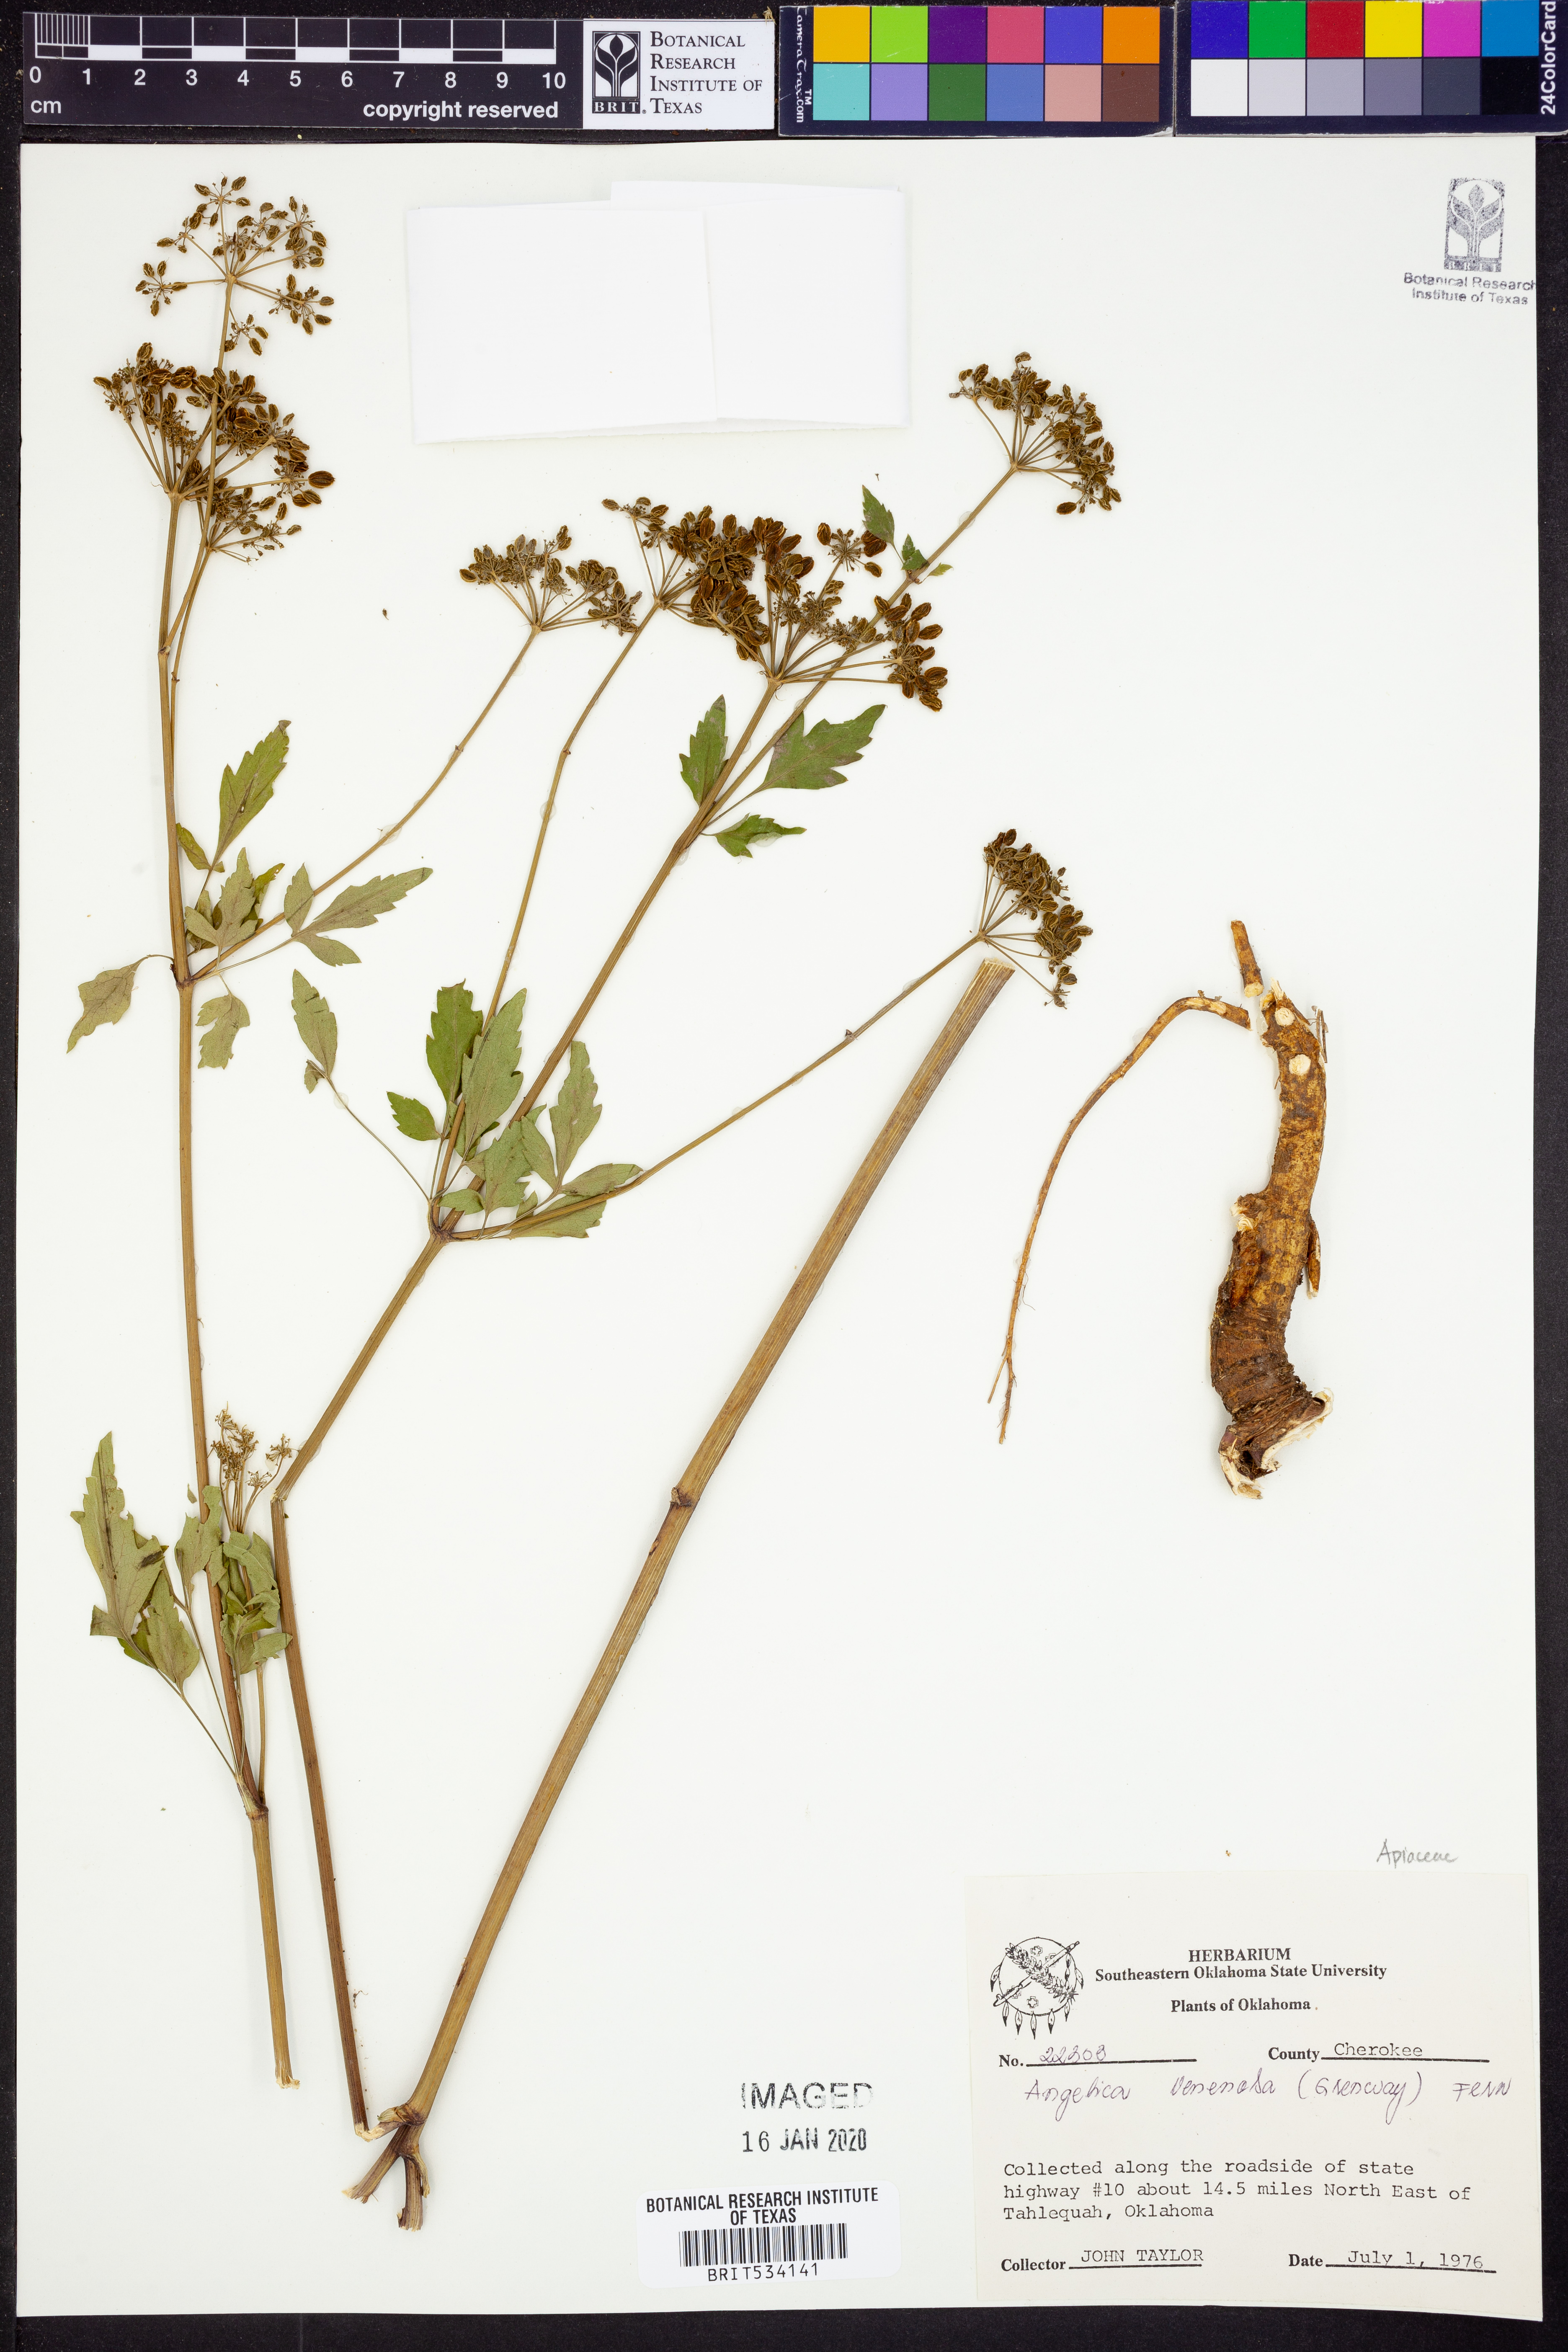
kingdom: Plantae
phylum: Tracheophyta
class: Magnoliopsida
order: Apiales
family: Apiaceae
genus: Angelica
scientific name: Angelica venenosa
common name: Hairy angelica
